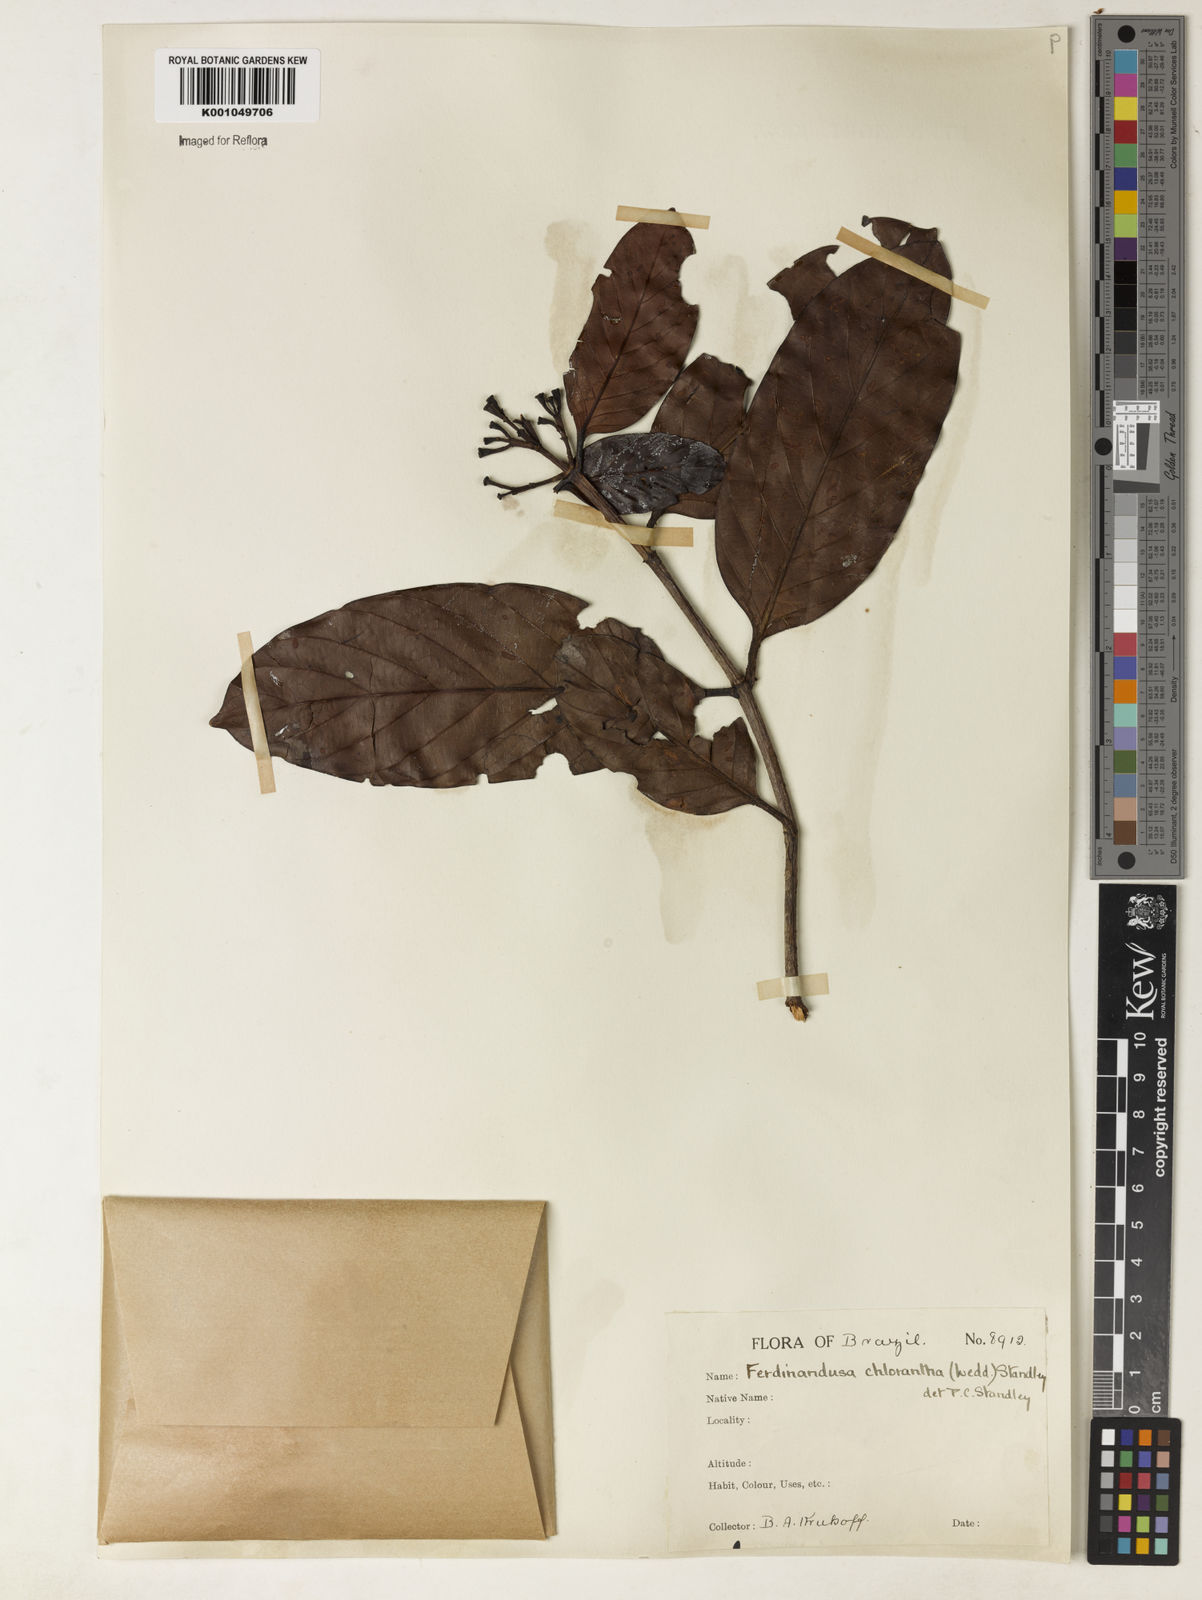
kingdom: Plantae
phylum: Tracheophyta
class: Magnoliopsida
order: Gentianales
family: Rubiaceae
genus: Ferdinandusa
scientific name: Ferdinandusa chlorantha
